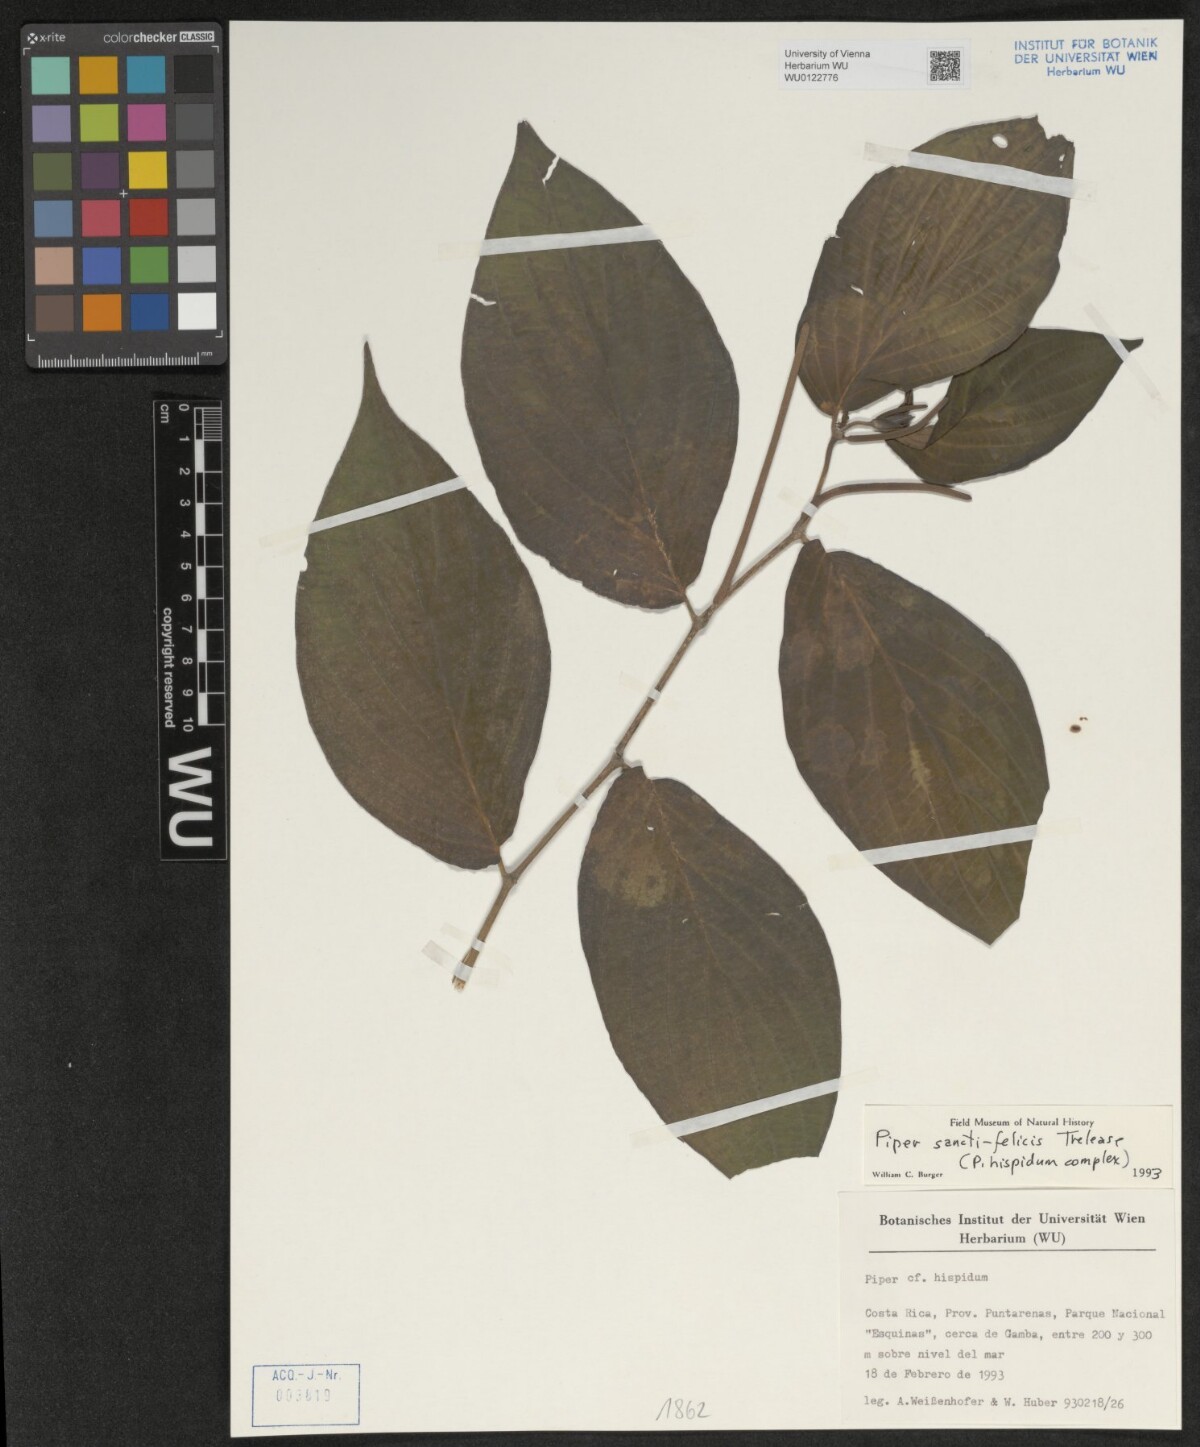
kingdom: Plantae
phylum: Tracheophyta
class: Magnoliopsida
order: Piperales
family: Piperaceae
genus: Piper
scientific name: Piper sancti-felicis
